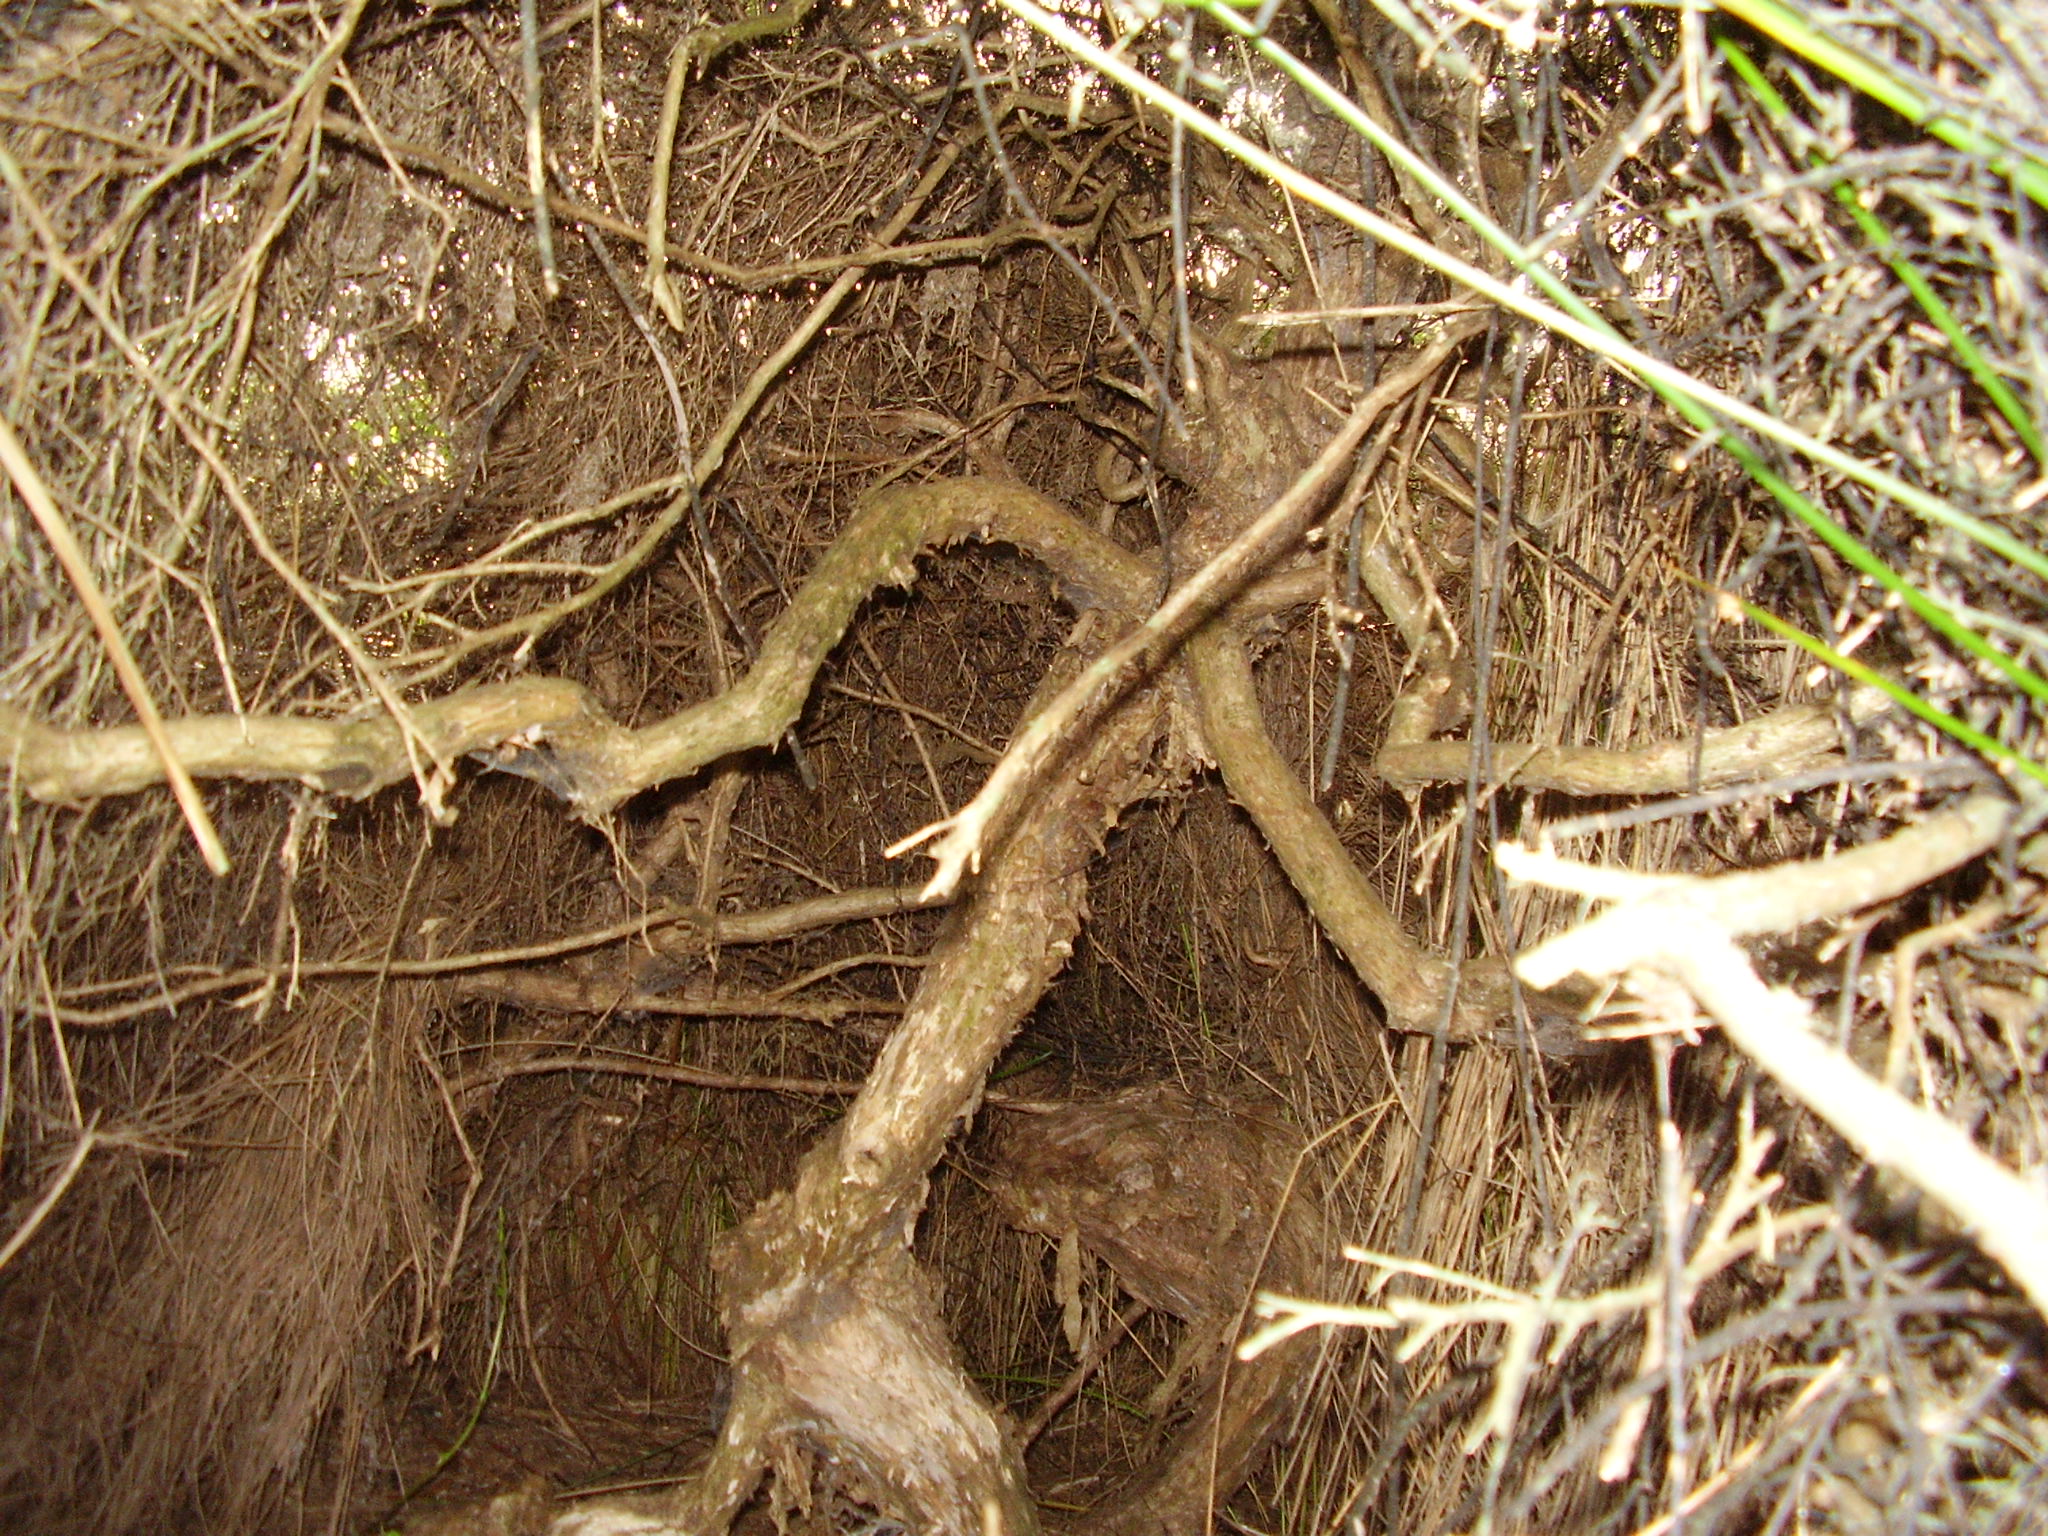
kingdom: Plantae
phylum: Tracheophyta
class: Magnoliopsida
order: Myrtales
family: Myrtaceae
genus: Kunzea
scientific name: Kunzea toelkenii
